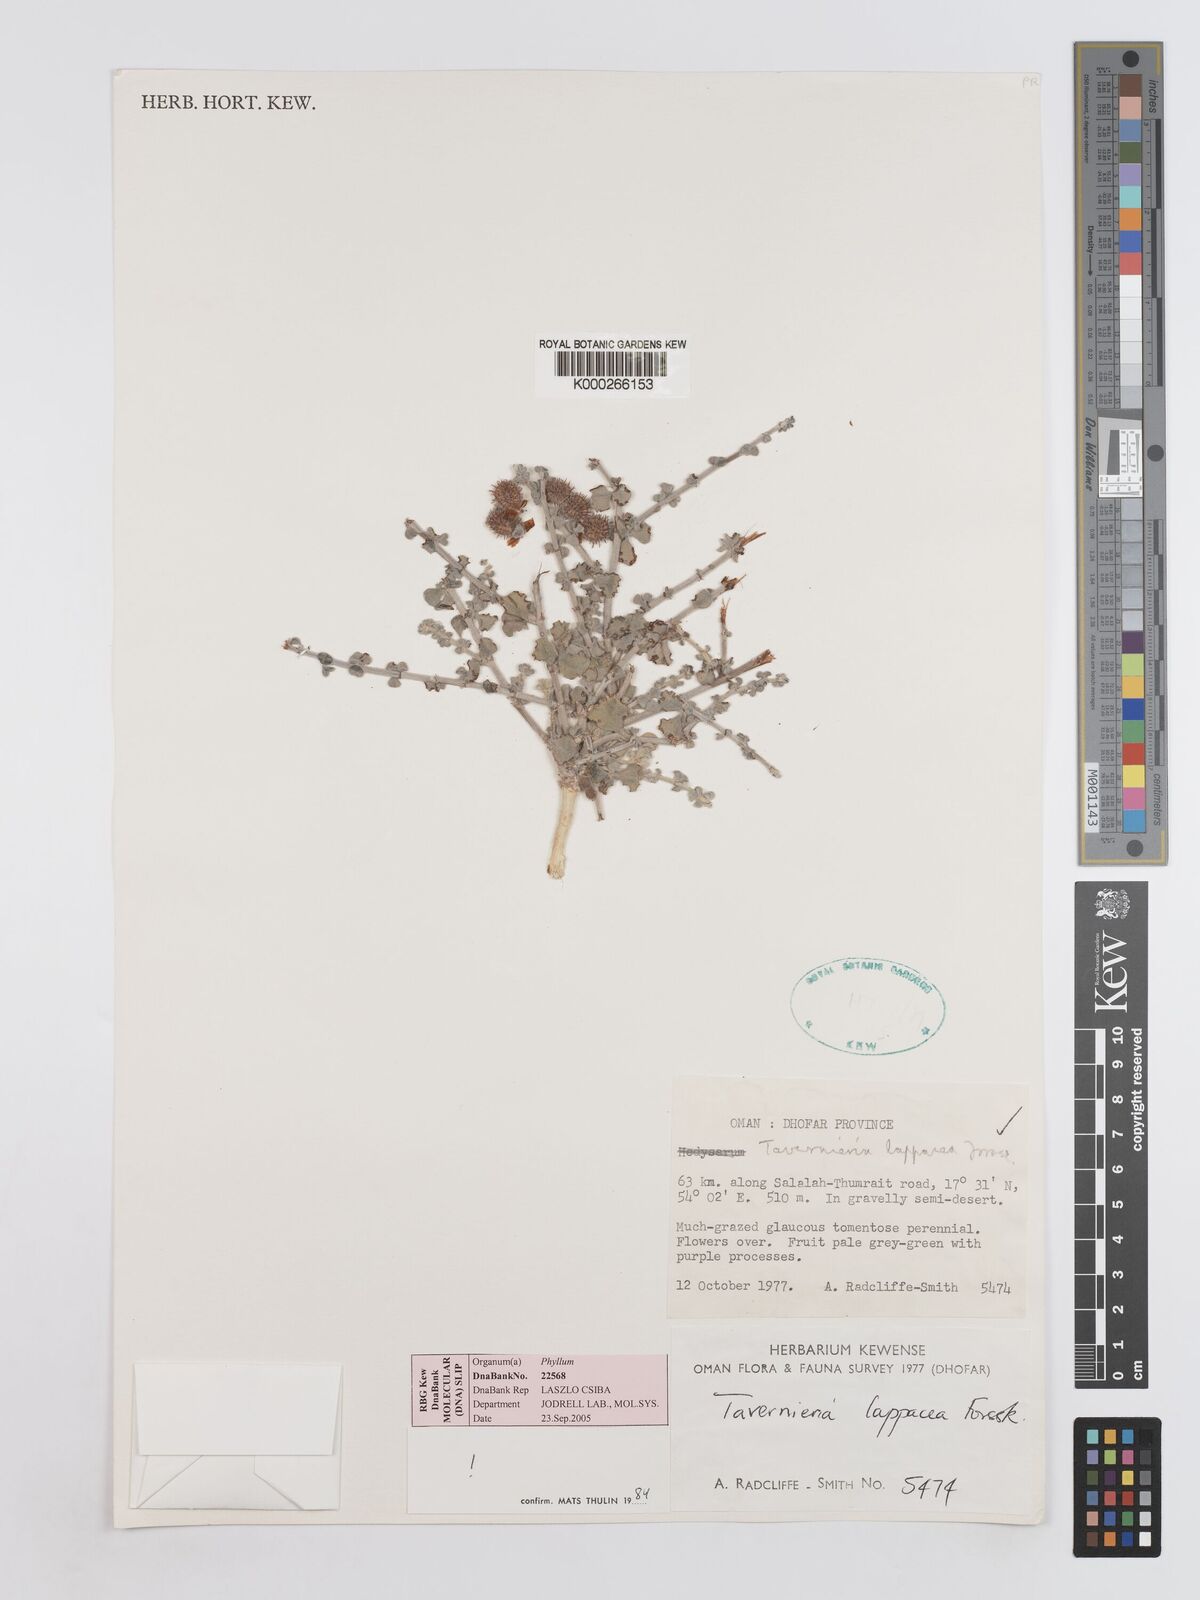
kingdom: Plantae
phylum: Tracheophyta
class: Magnoliopsida
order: Fabales
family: Fabaceae
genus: Taverniera
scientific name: Taverniera lappacea
